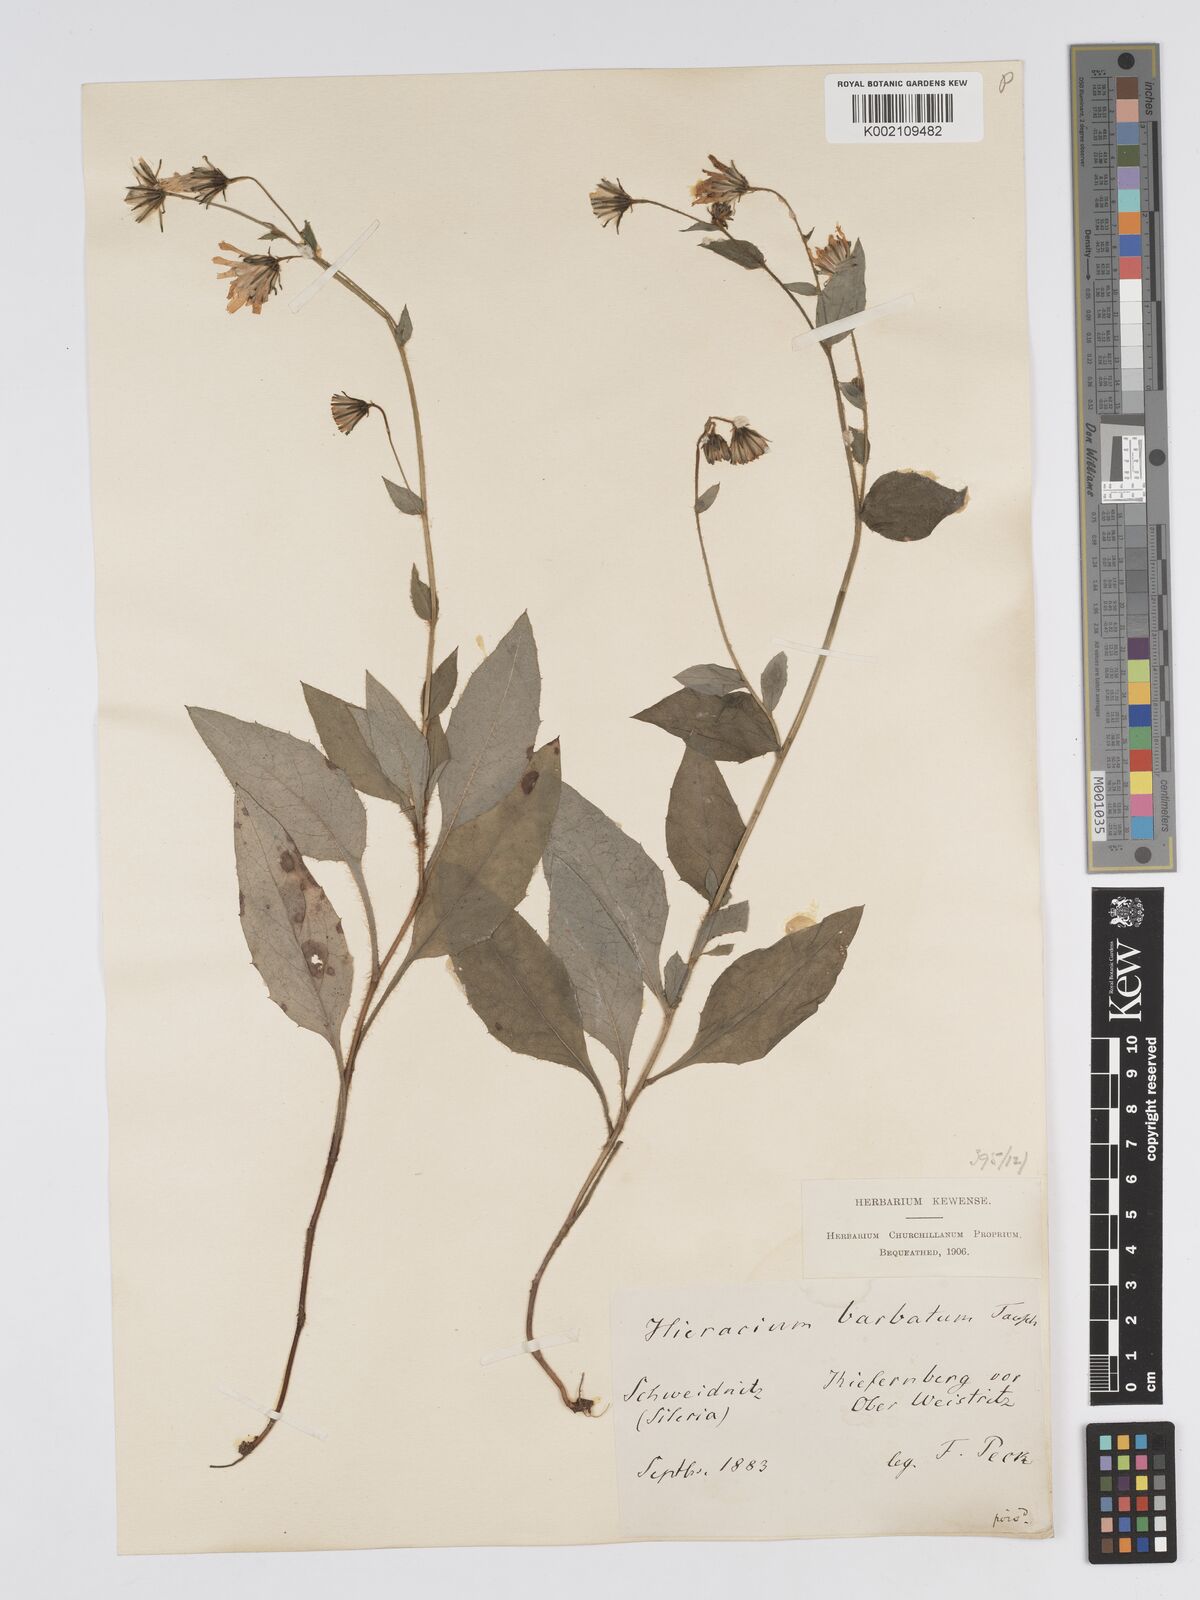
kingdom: Plantae
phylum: Tracheophyta
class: Magnoliopsida
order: Asterales
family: Asteraceae
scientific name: Asteraceae
